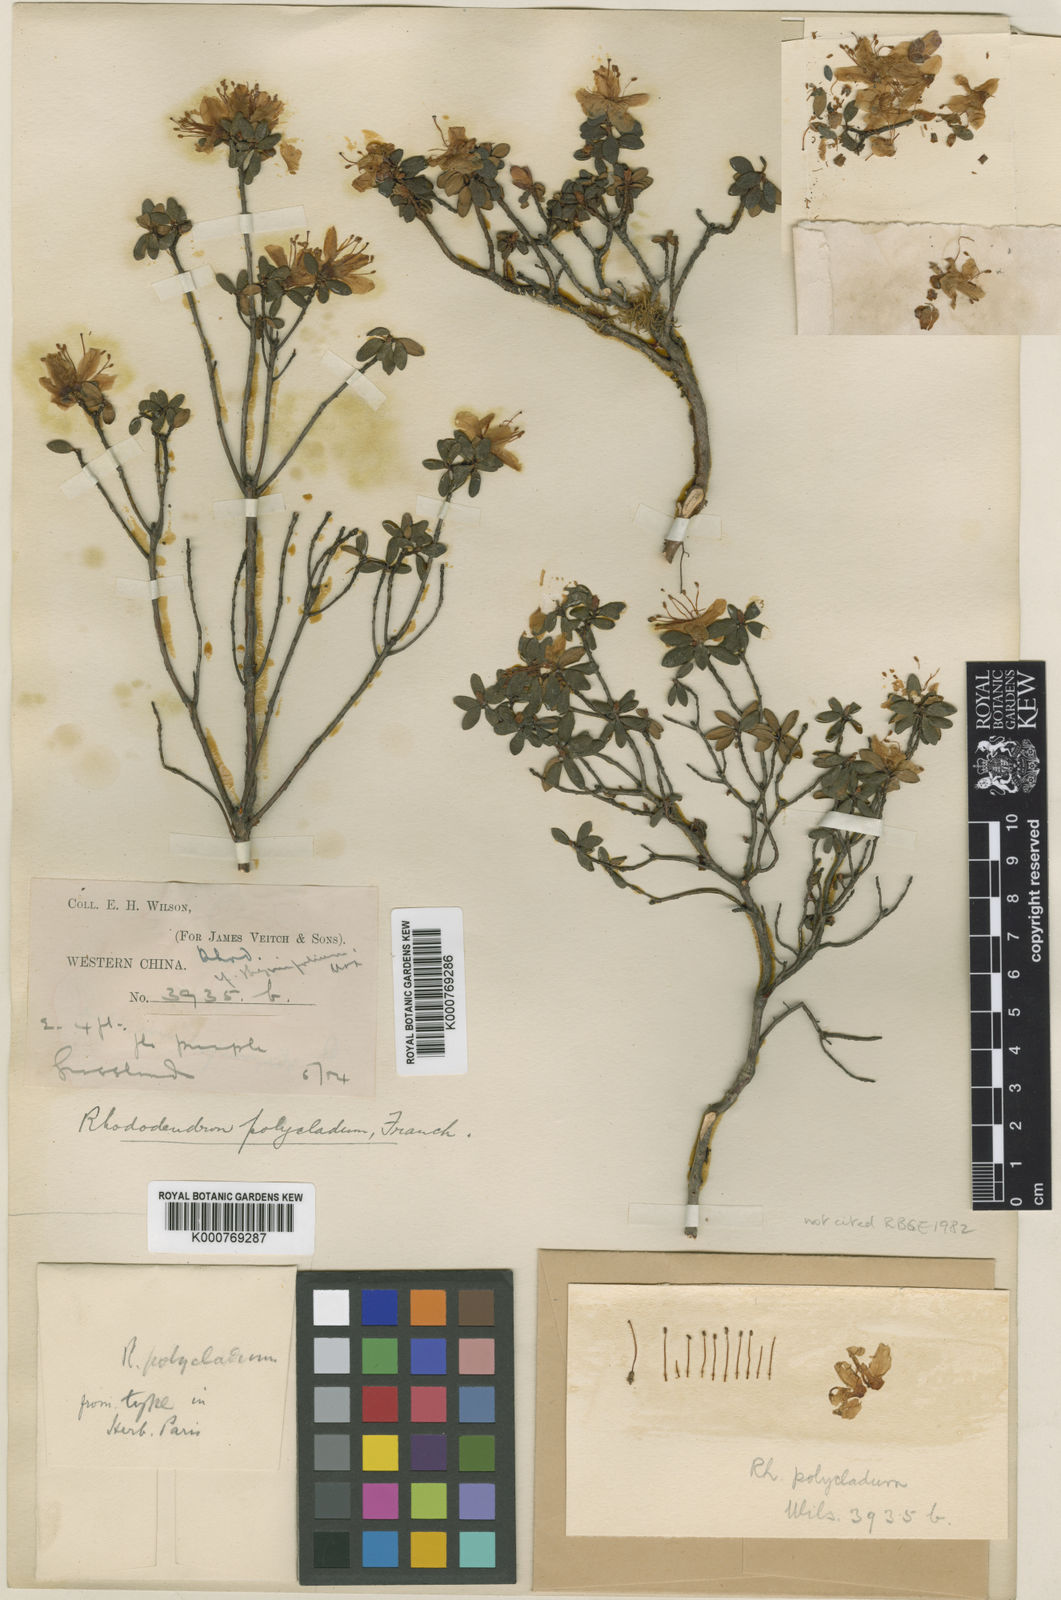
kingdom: Plantae
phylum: Tracheophyta
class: Magnoliopsida
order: Ericales
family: Ericaceae
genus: Rhododendron
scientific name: Rhododendron polycladum
